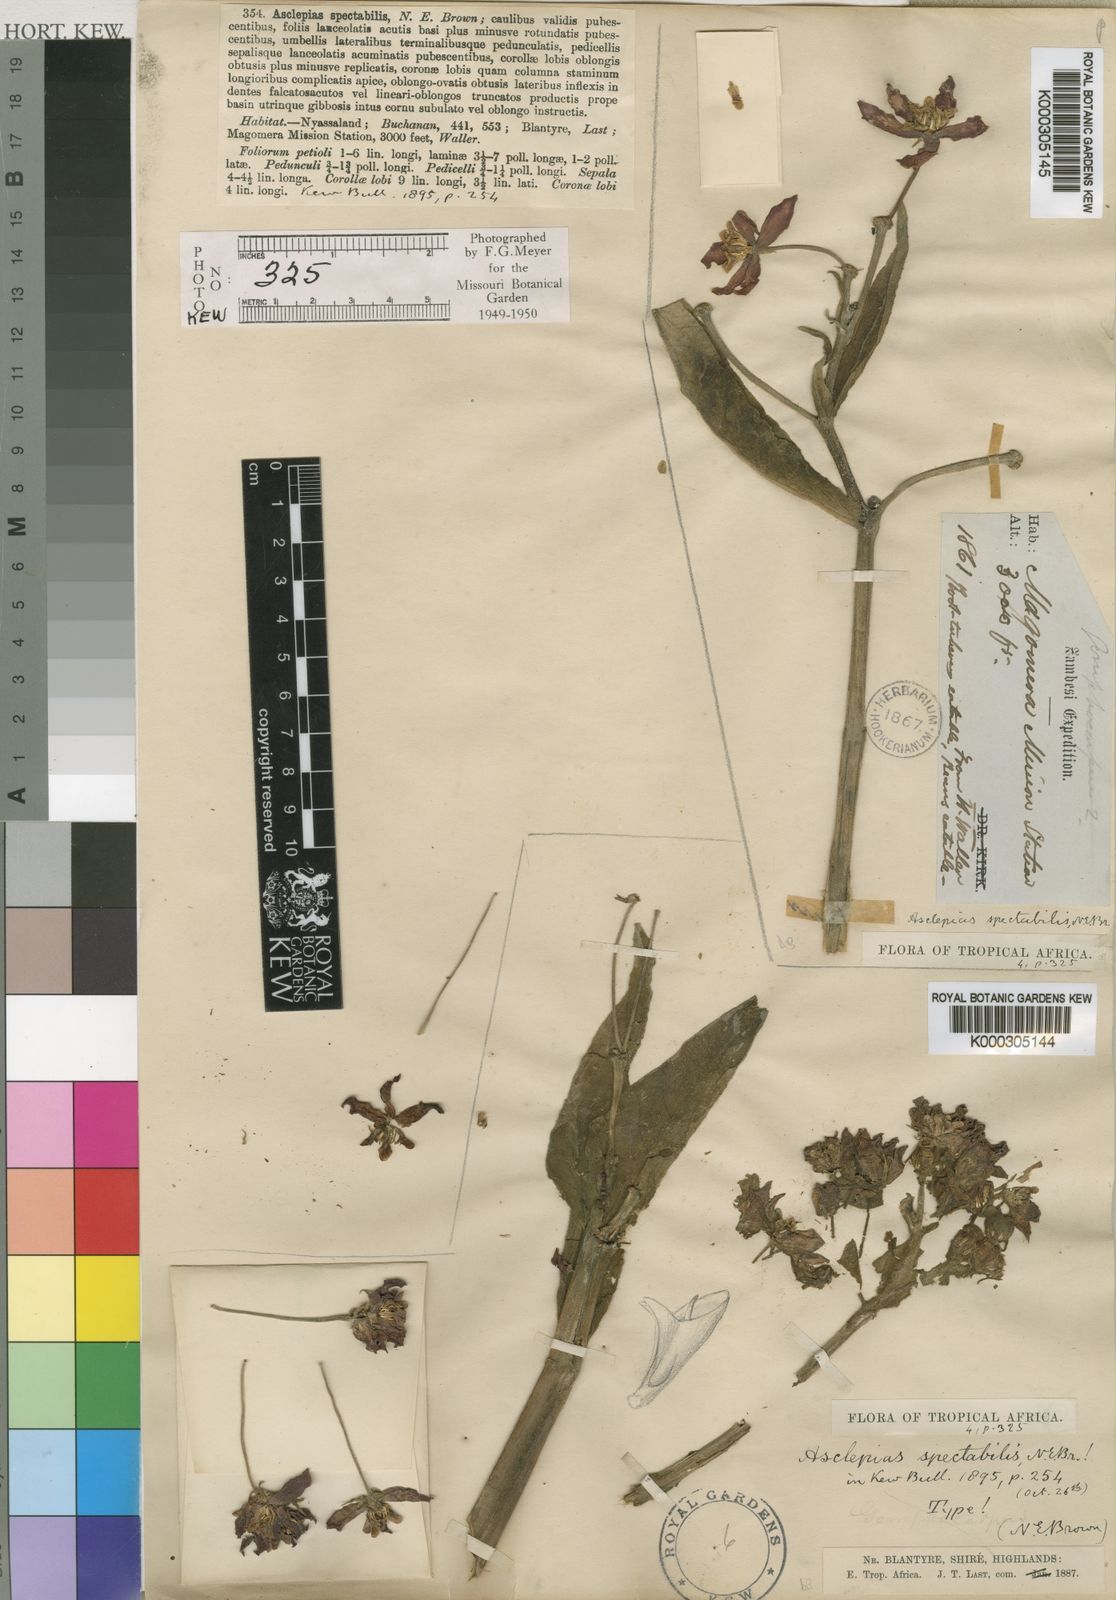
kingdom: Plantae
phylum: Tracheophyta
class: Magnoliopsida
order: Gentianales
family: Apocynaceae
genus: Stathmostelma
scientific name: Stathmostelma spectabile
